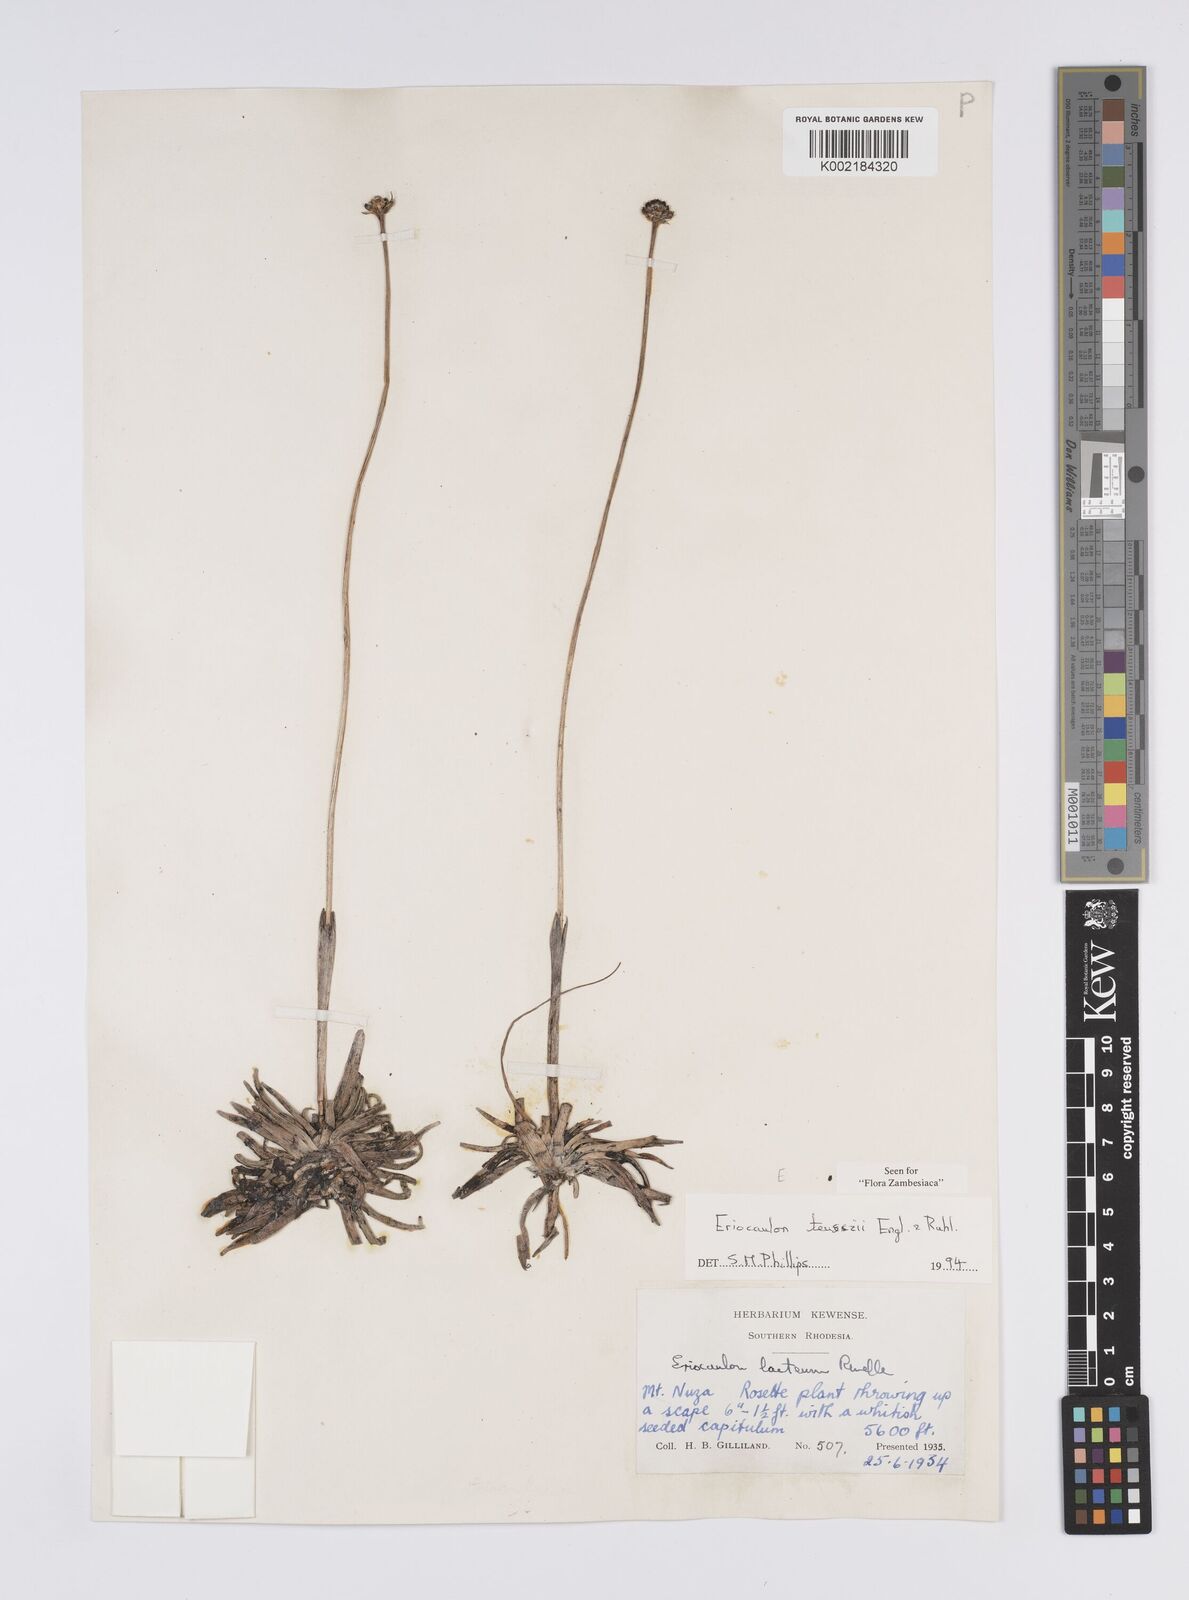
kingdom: Plantae
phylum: Tracheophyta
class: Liliopsida
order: Poales
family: Eriocaulaceae
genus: Eriocaulon
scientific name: Eriocaulon teusczii
